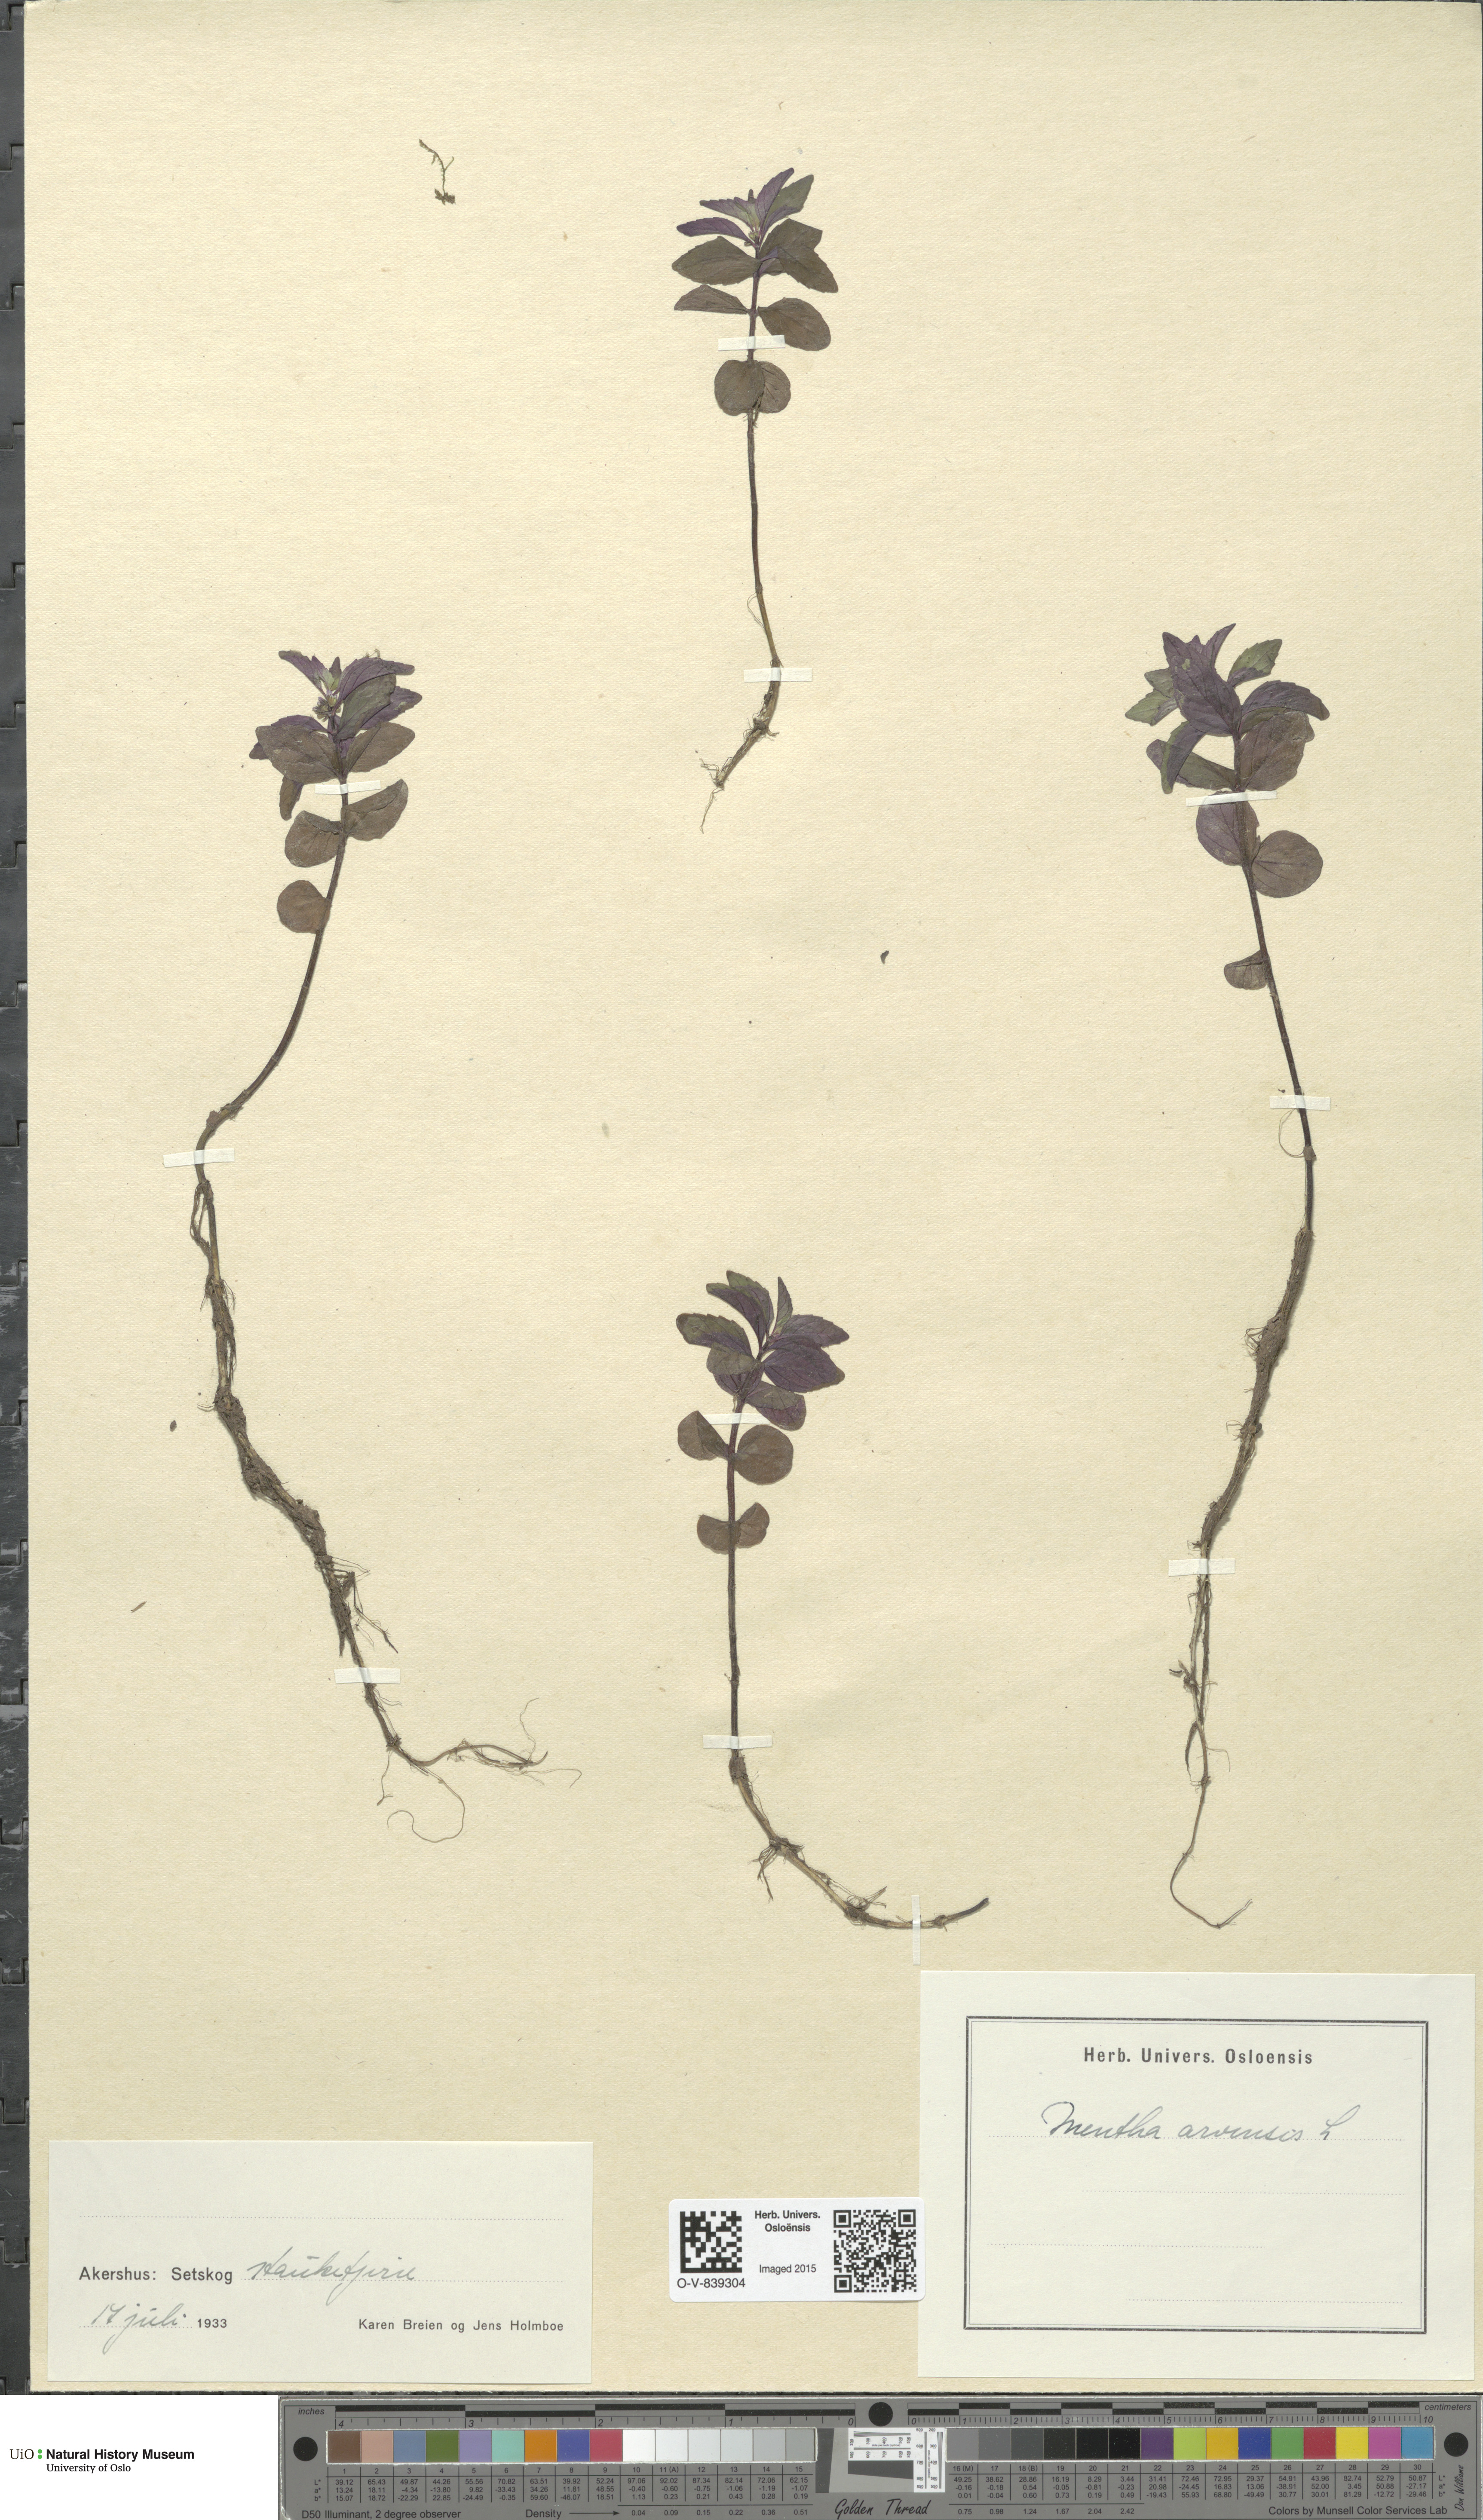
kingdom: Plantae
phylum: Tracheophyta
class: Magnoliopsida
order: Lamiales
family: Lamiaceae
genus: Mentha
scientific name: Mentha arvensis
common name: Corn mint
